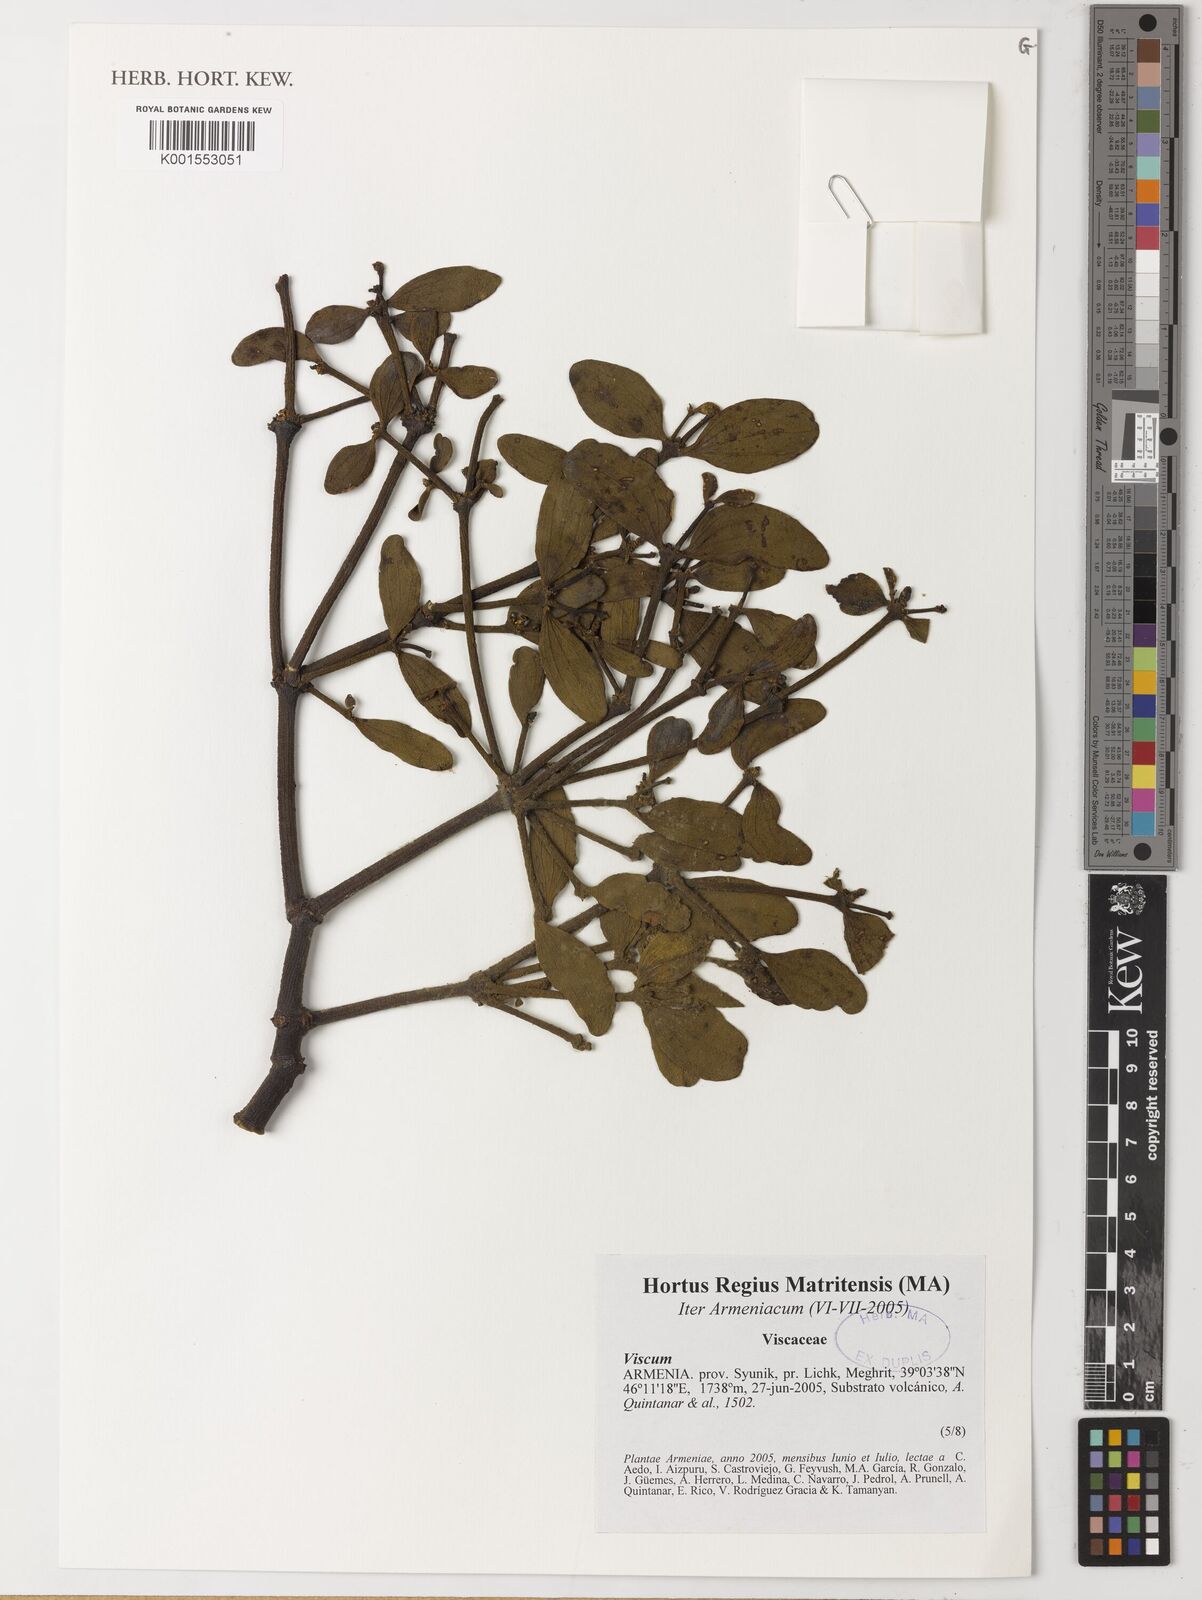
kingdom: Plantae
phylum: Tracheophyta
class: Magnoliopsida
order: Santalales
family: Viscaceae
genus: Viscum
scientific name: Viscum
